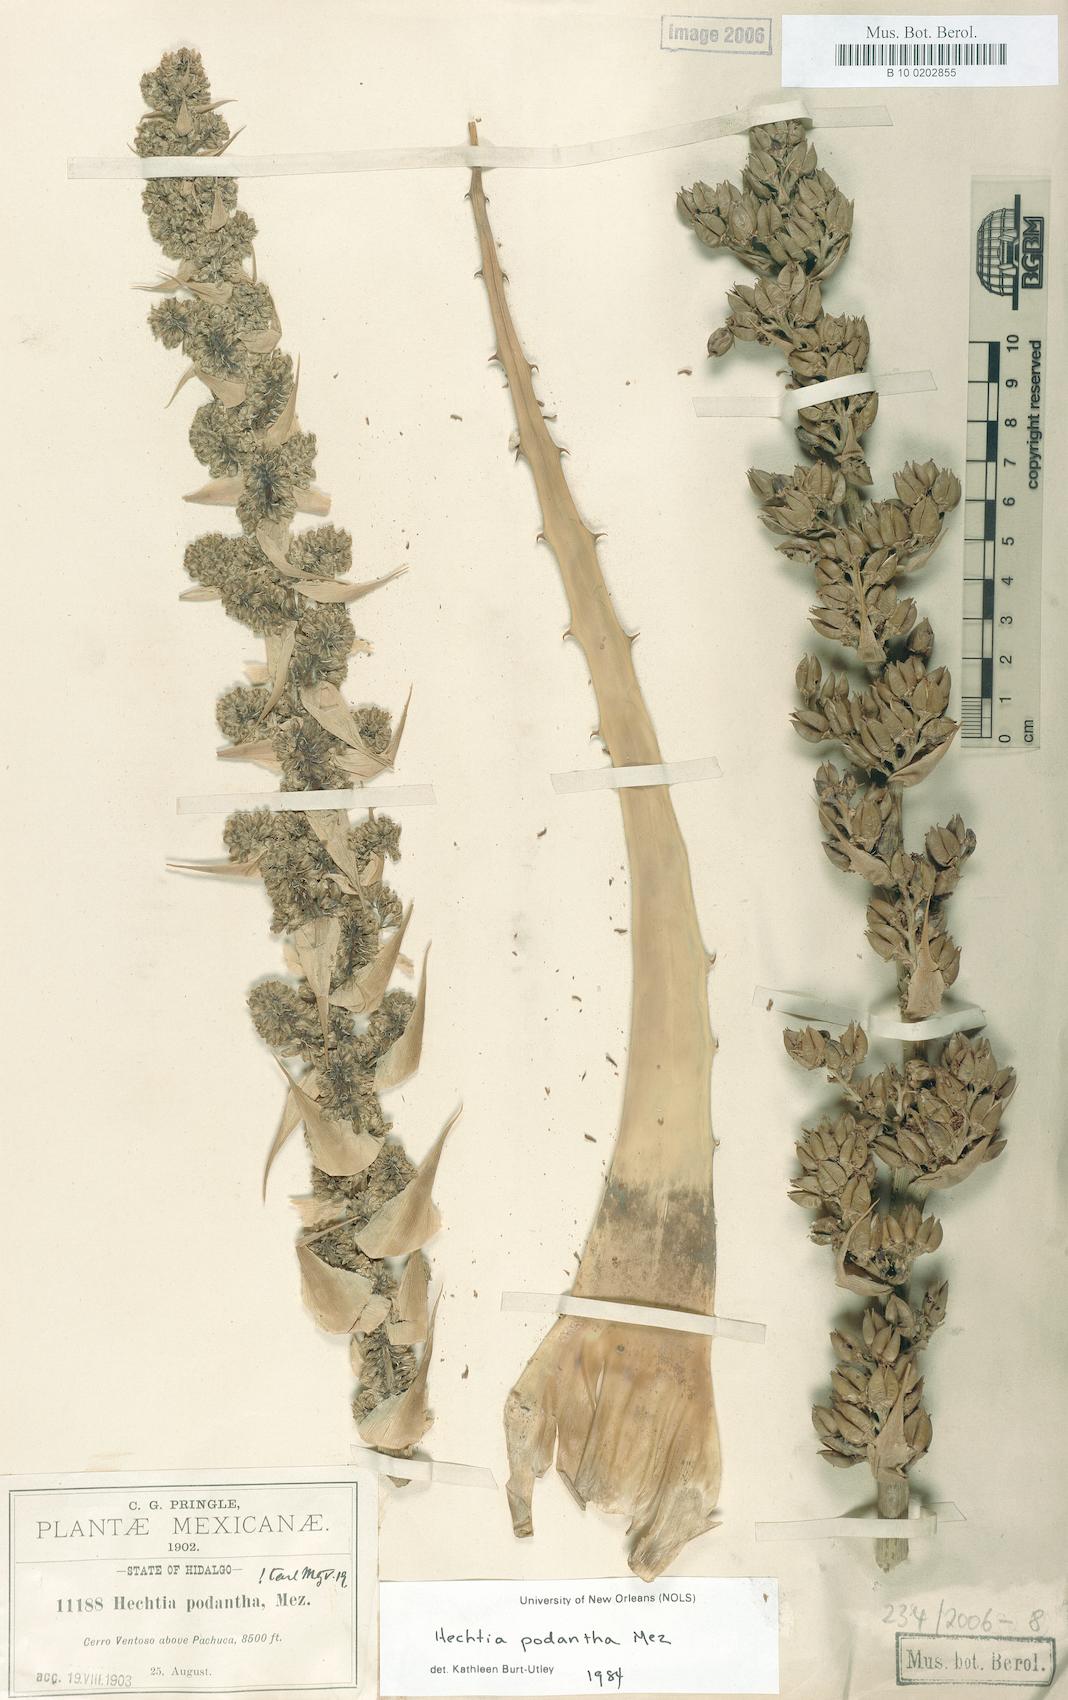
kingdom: Plantae
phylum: Tracheophyta
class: Liliopsida
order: Poales
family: Bromeliaceae
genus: Hechtia
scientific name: Hechtia podantha
